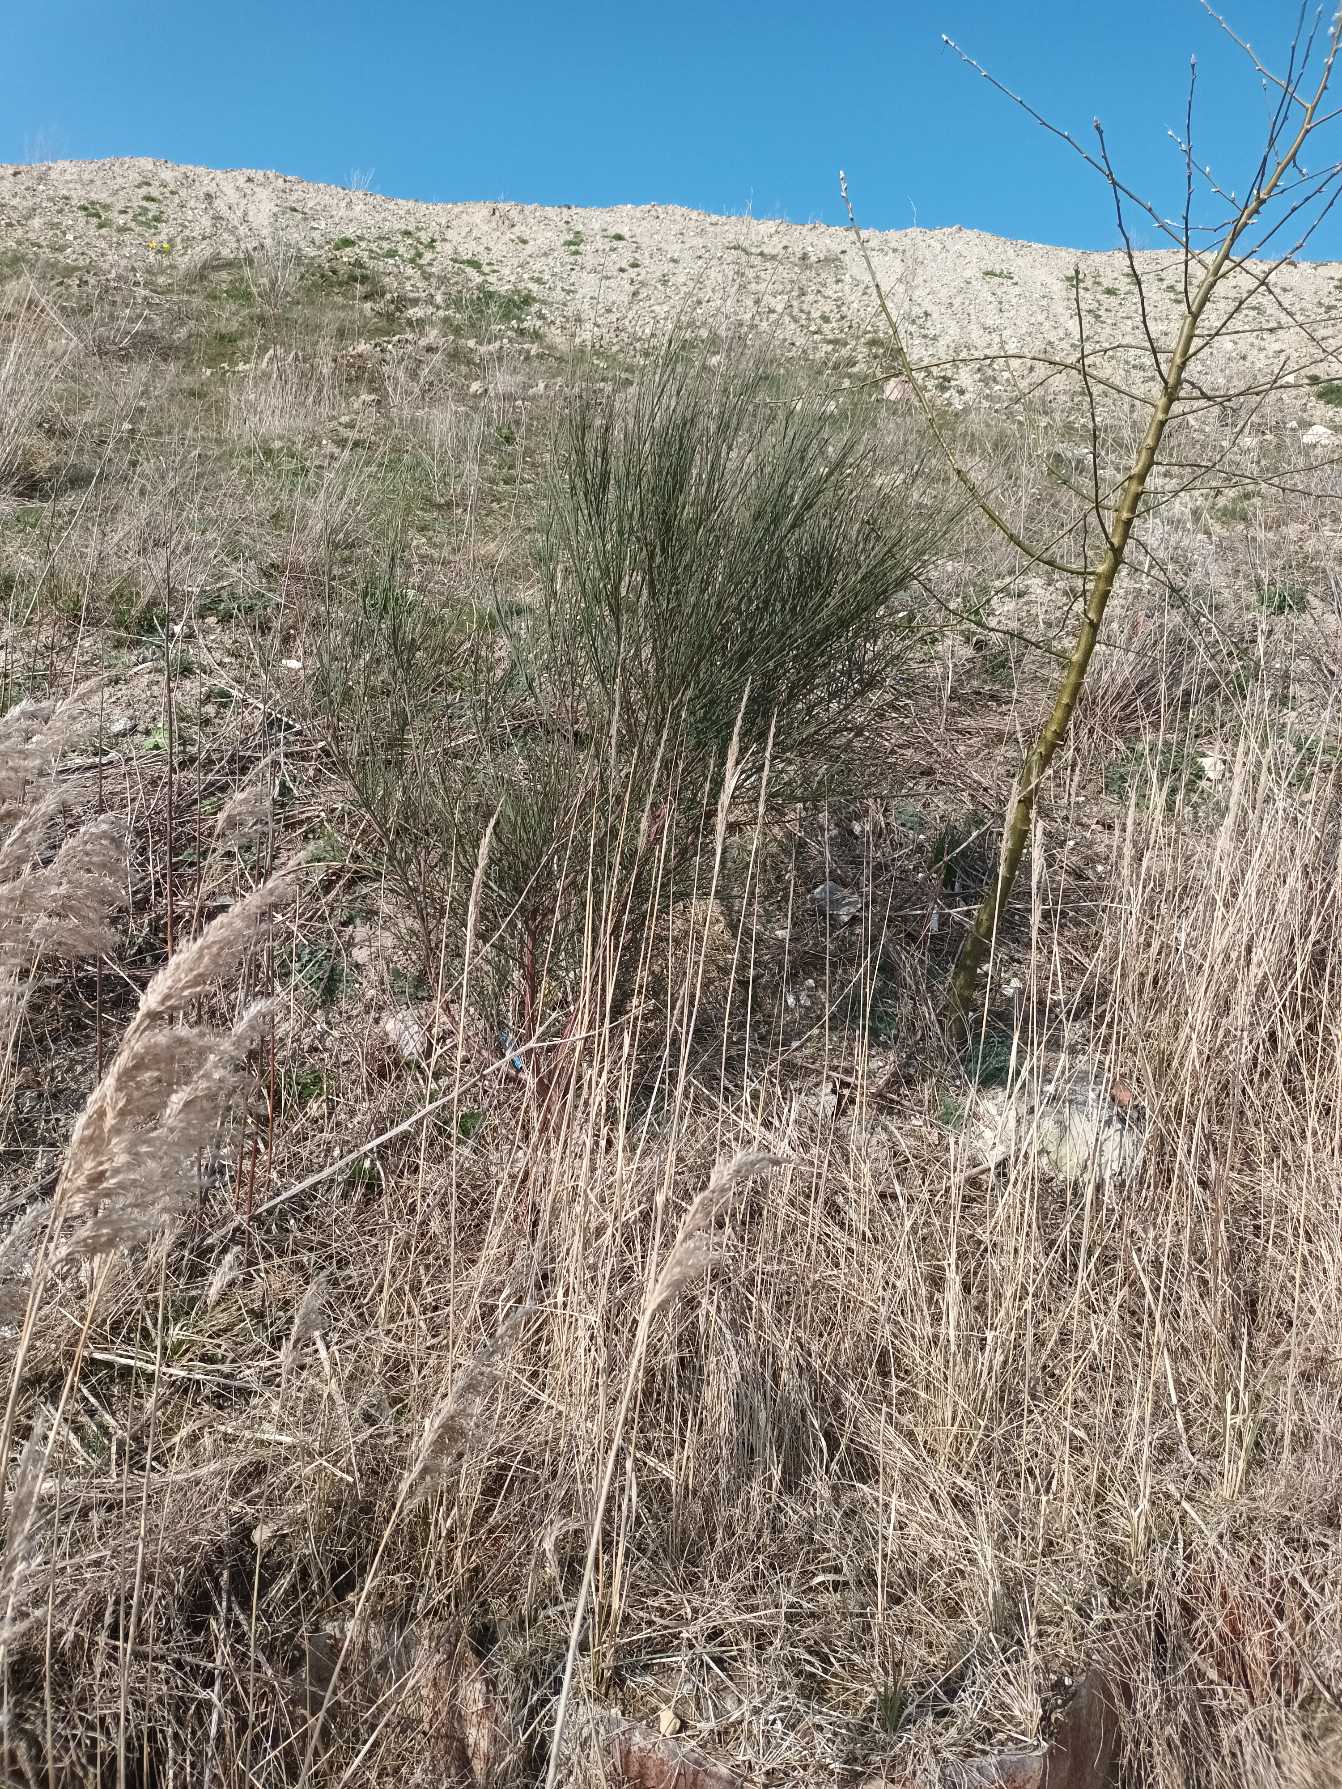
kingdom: Plantae
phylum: Tracheophyta
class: Magnoliopsida
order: Fabales
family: Fabaceae
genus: Cytisus
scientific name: Cytisus scoparius
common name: Almindelig gyvel
